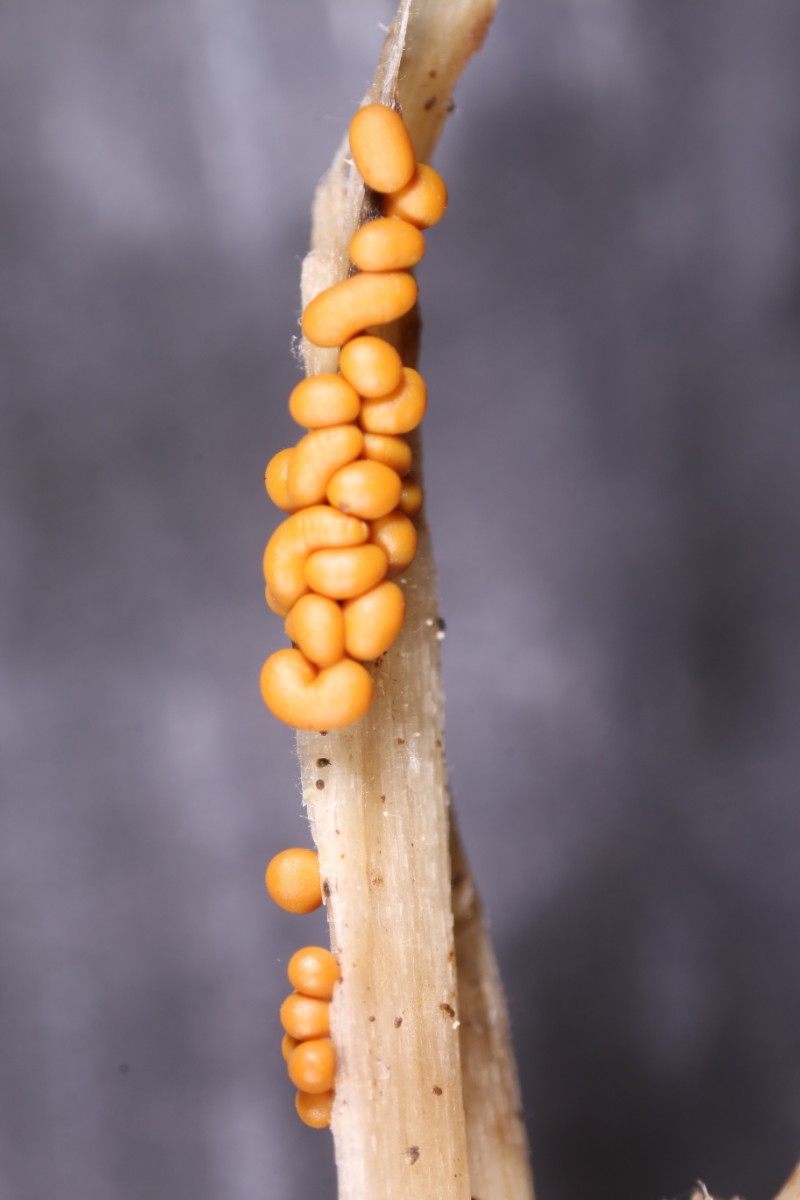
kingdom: Protozoa
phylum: Mycetozoa
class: Myxomycetes
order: Trichiales
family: Trichiaceae
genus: Trichia
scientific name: Trichia varia
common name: foranderlig hårbold
